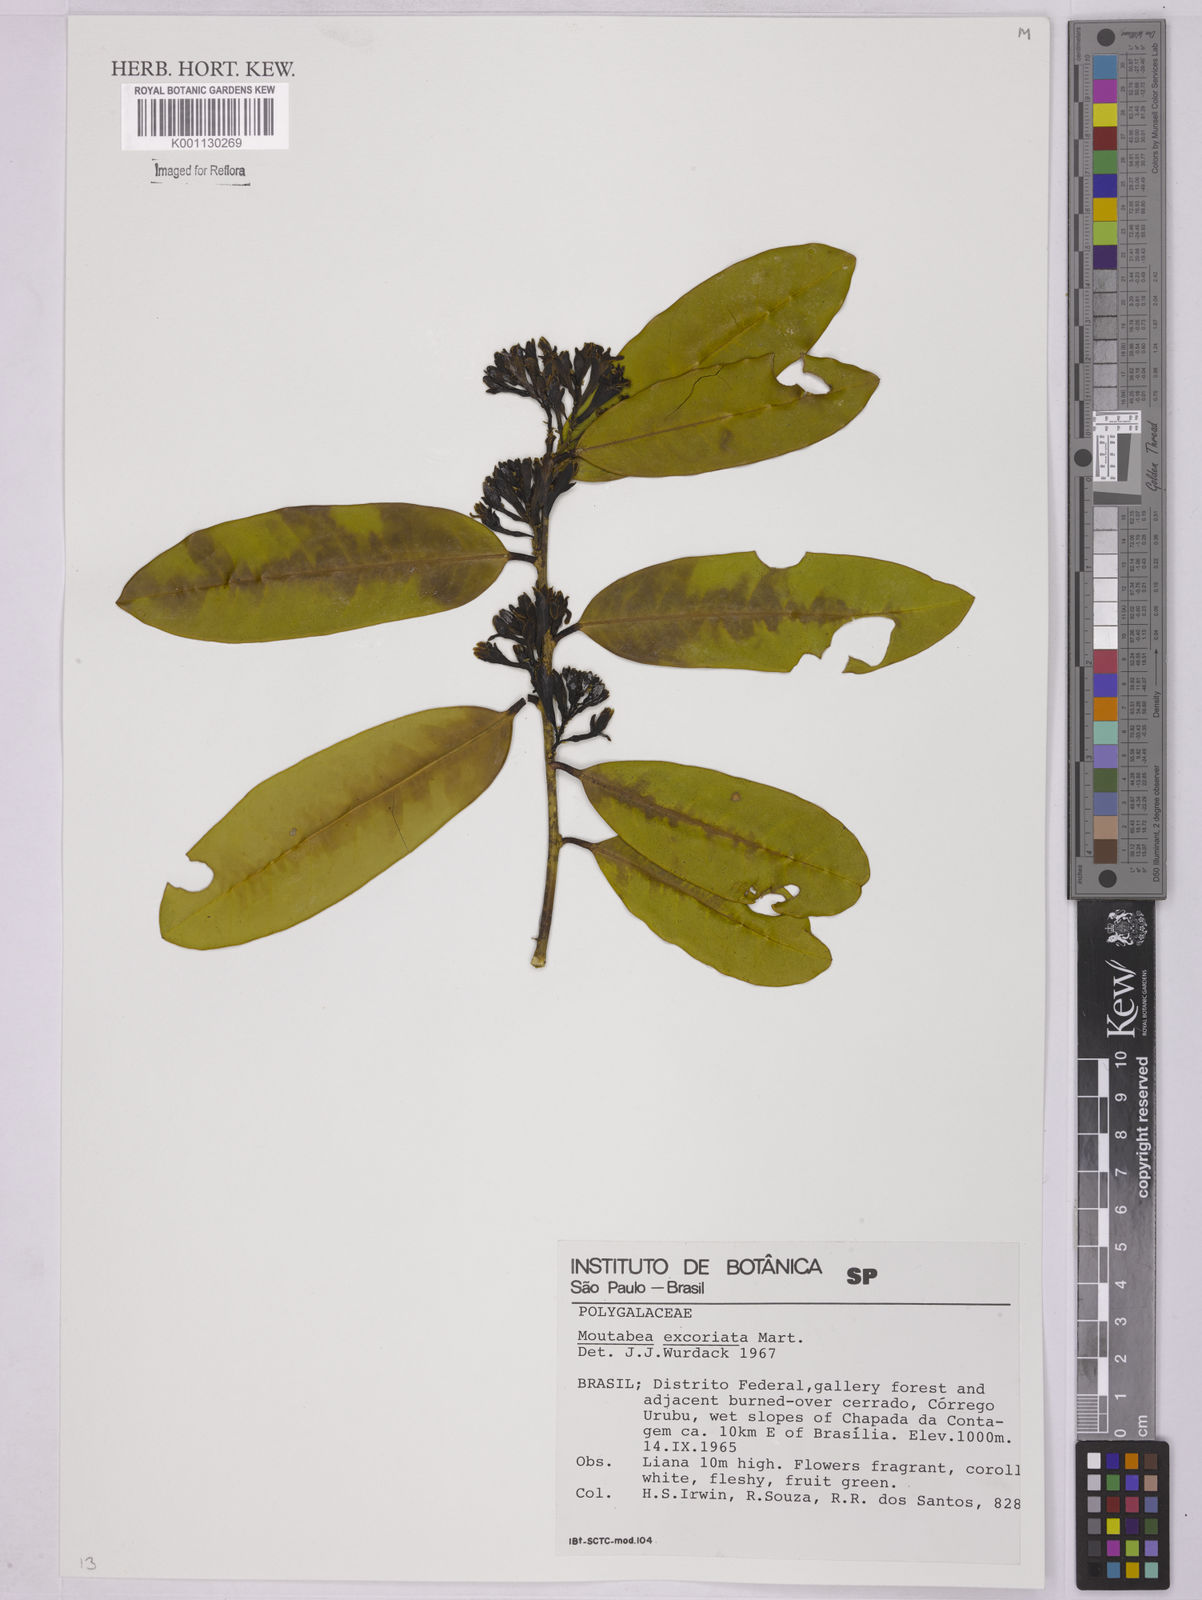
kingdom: Plantae
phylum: Tracheophyta
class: Magnoliopsida
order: Fabales
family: Polygalaceae
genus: Moutabea
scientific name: Moutabea excoriata
